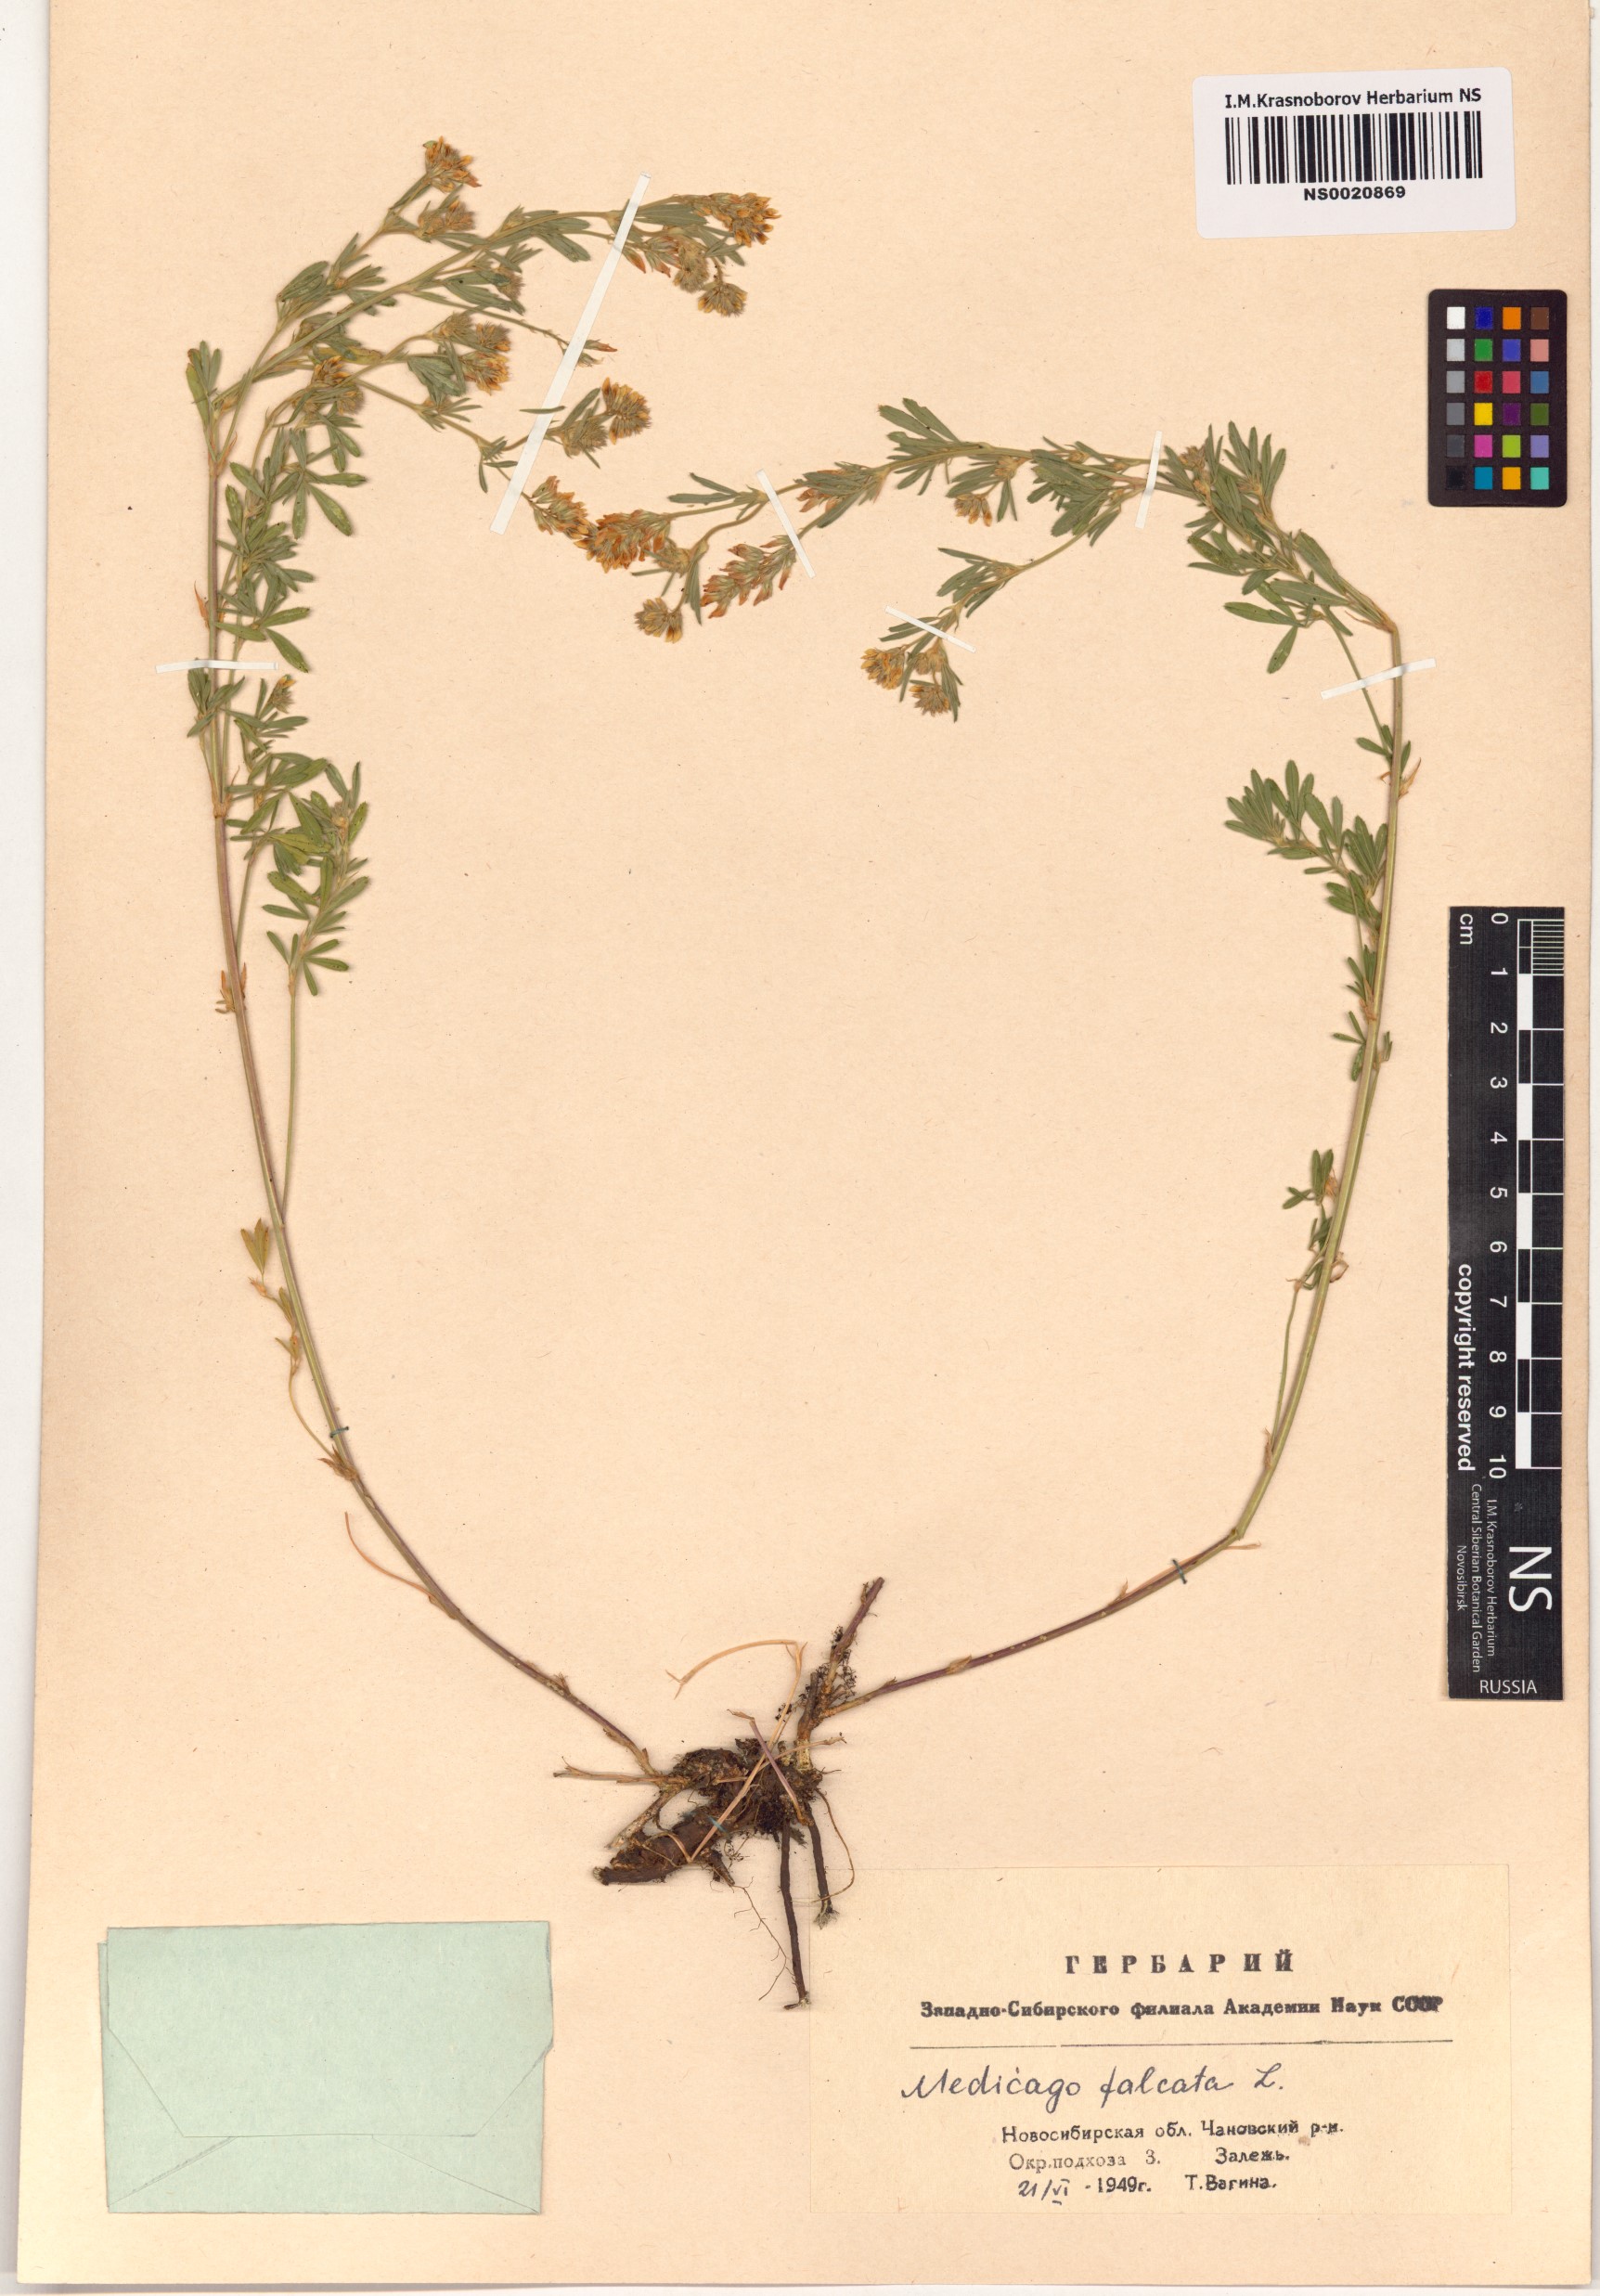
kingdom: Plantae
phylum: Tracheophyta
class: Magnoliopsida
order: Fabales
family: Fabaceae
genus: Medicago
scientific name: Medicago falcata
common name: Sickle medick
